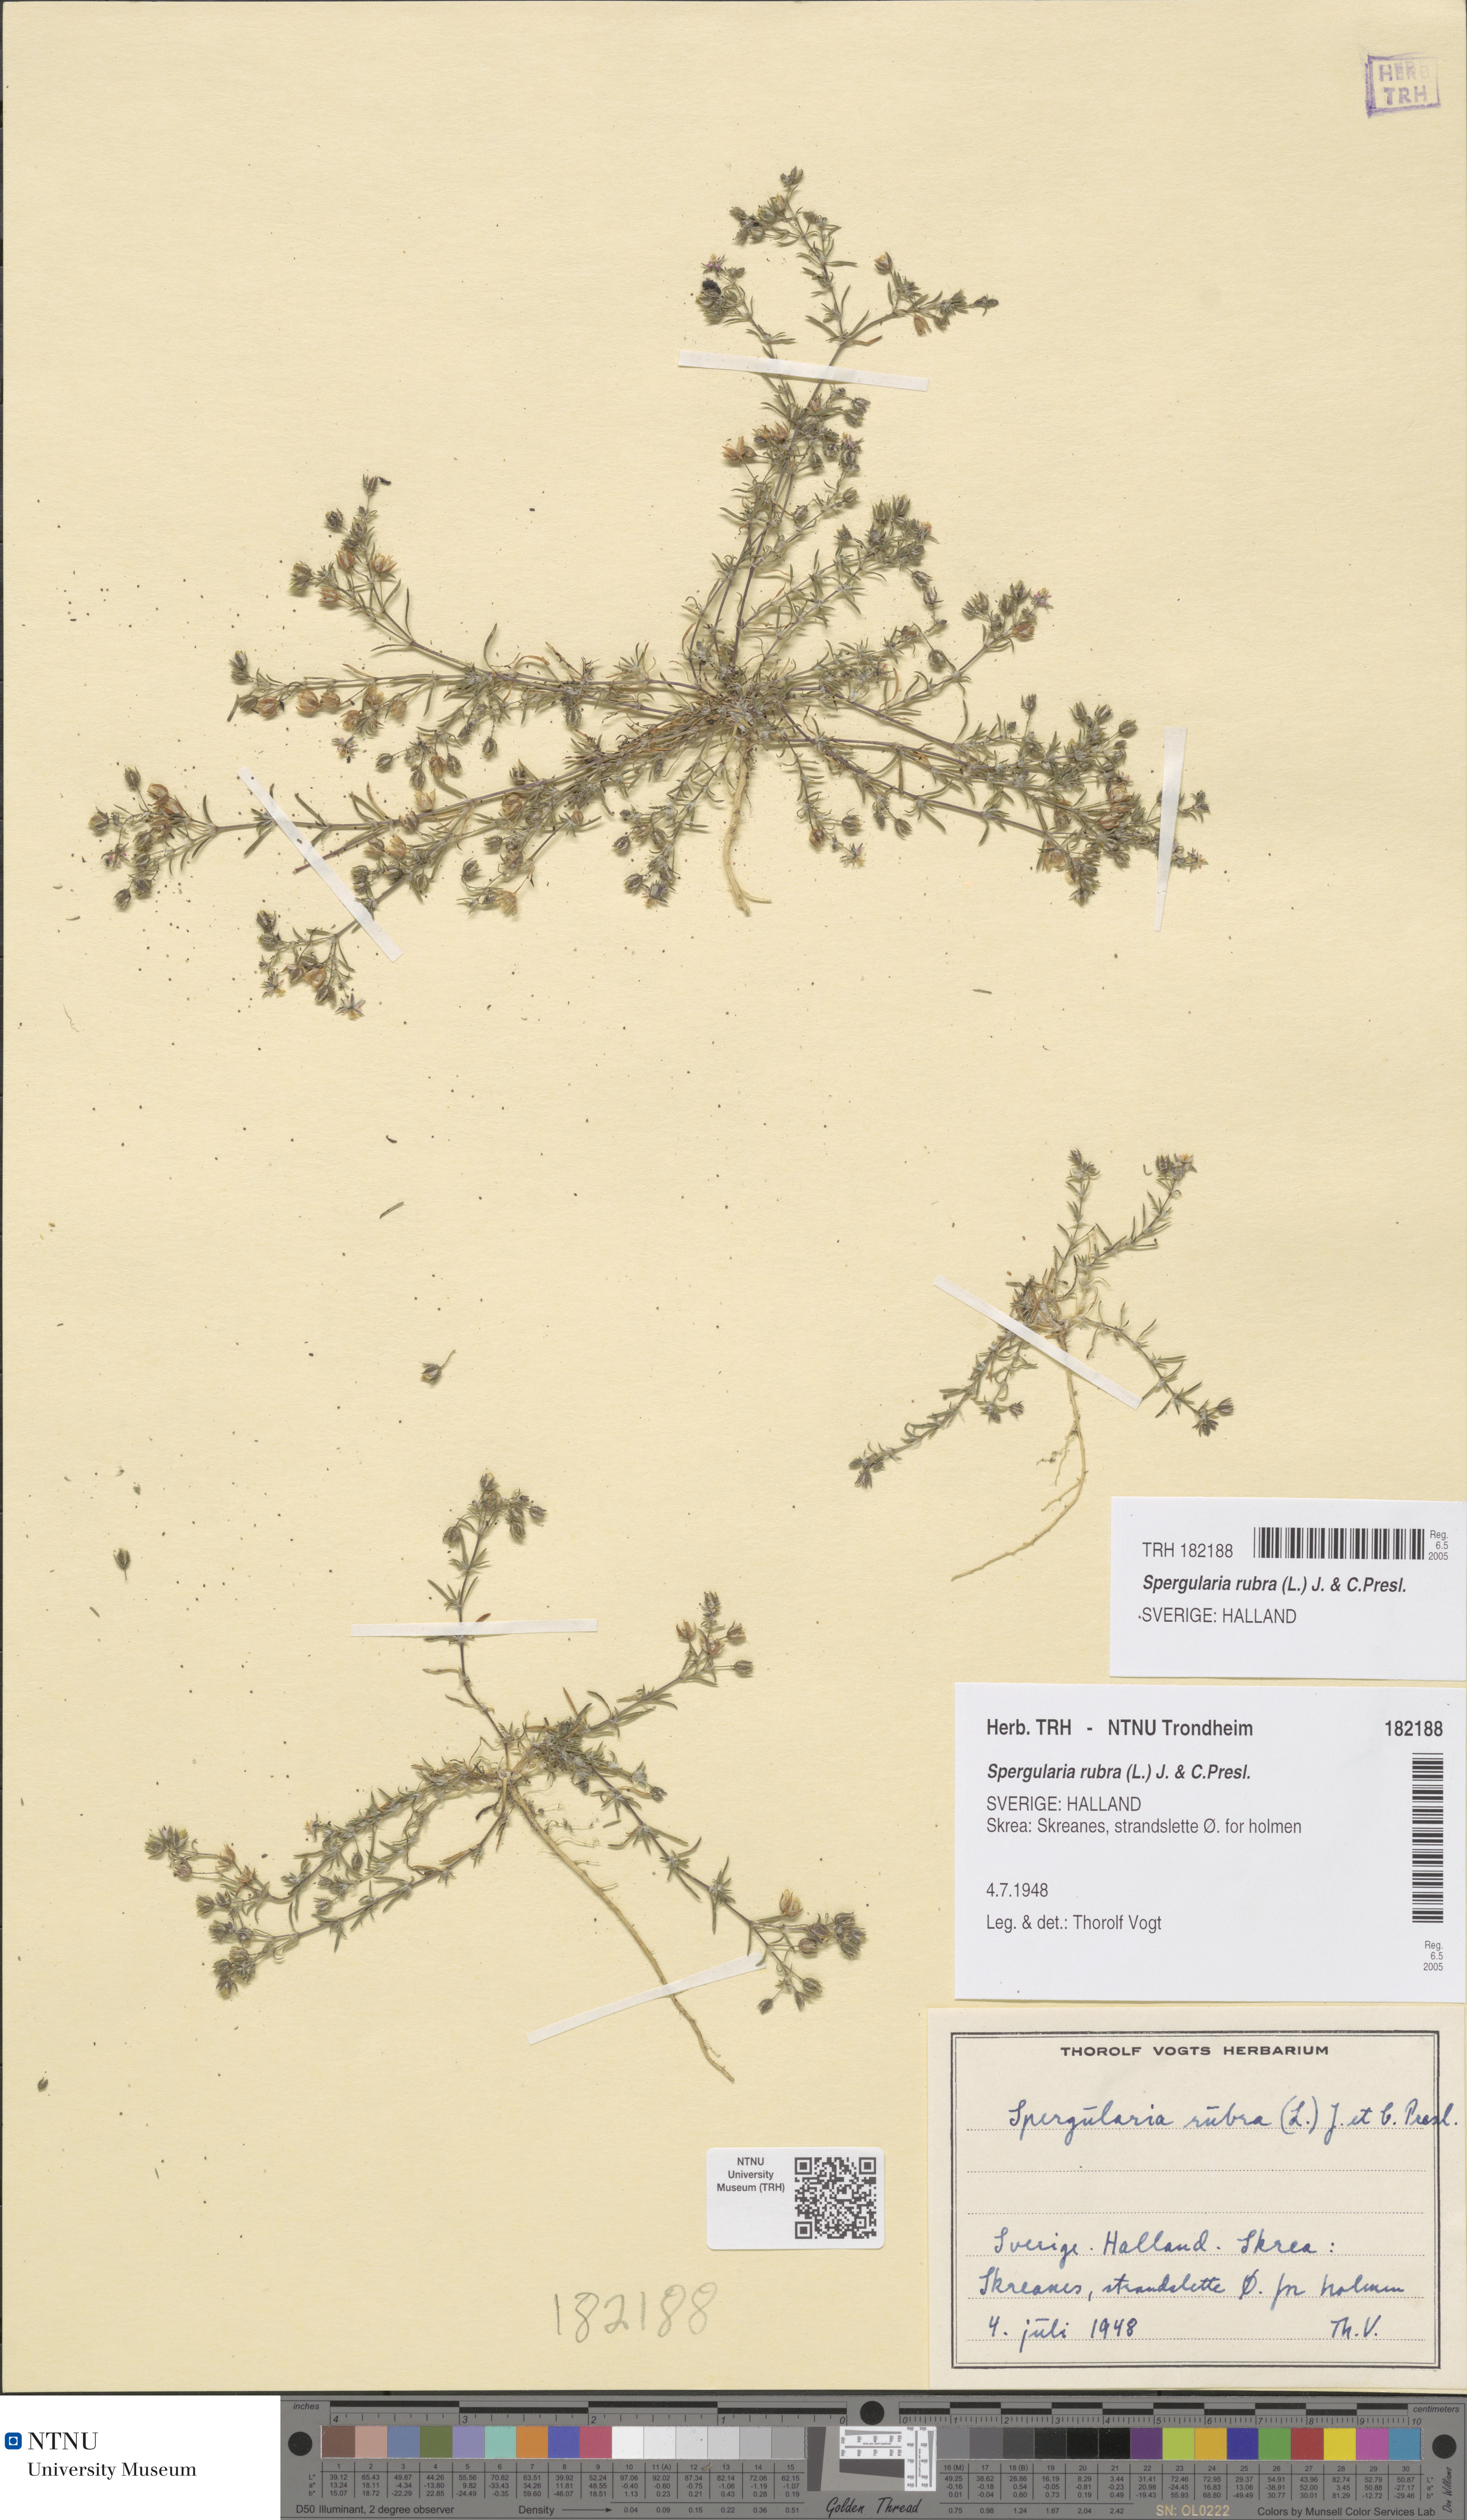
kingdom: Plantae
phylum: Tracheophyta
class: Magnoliopsida
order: Caryophyllales
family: Caryophyllaceae
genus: Spergularia
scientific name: Spergularia rubra
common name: Red sand-spurrey
